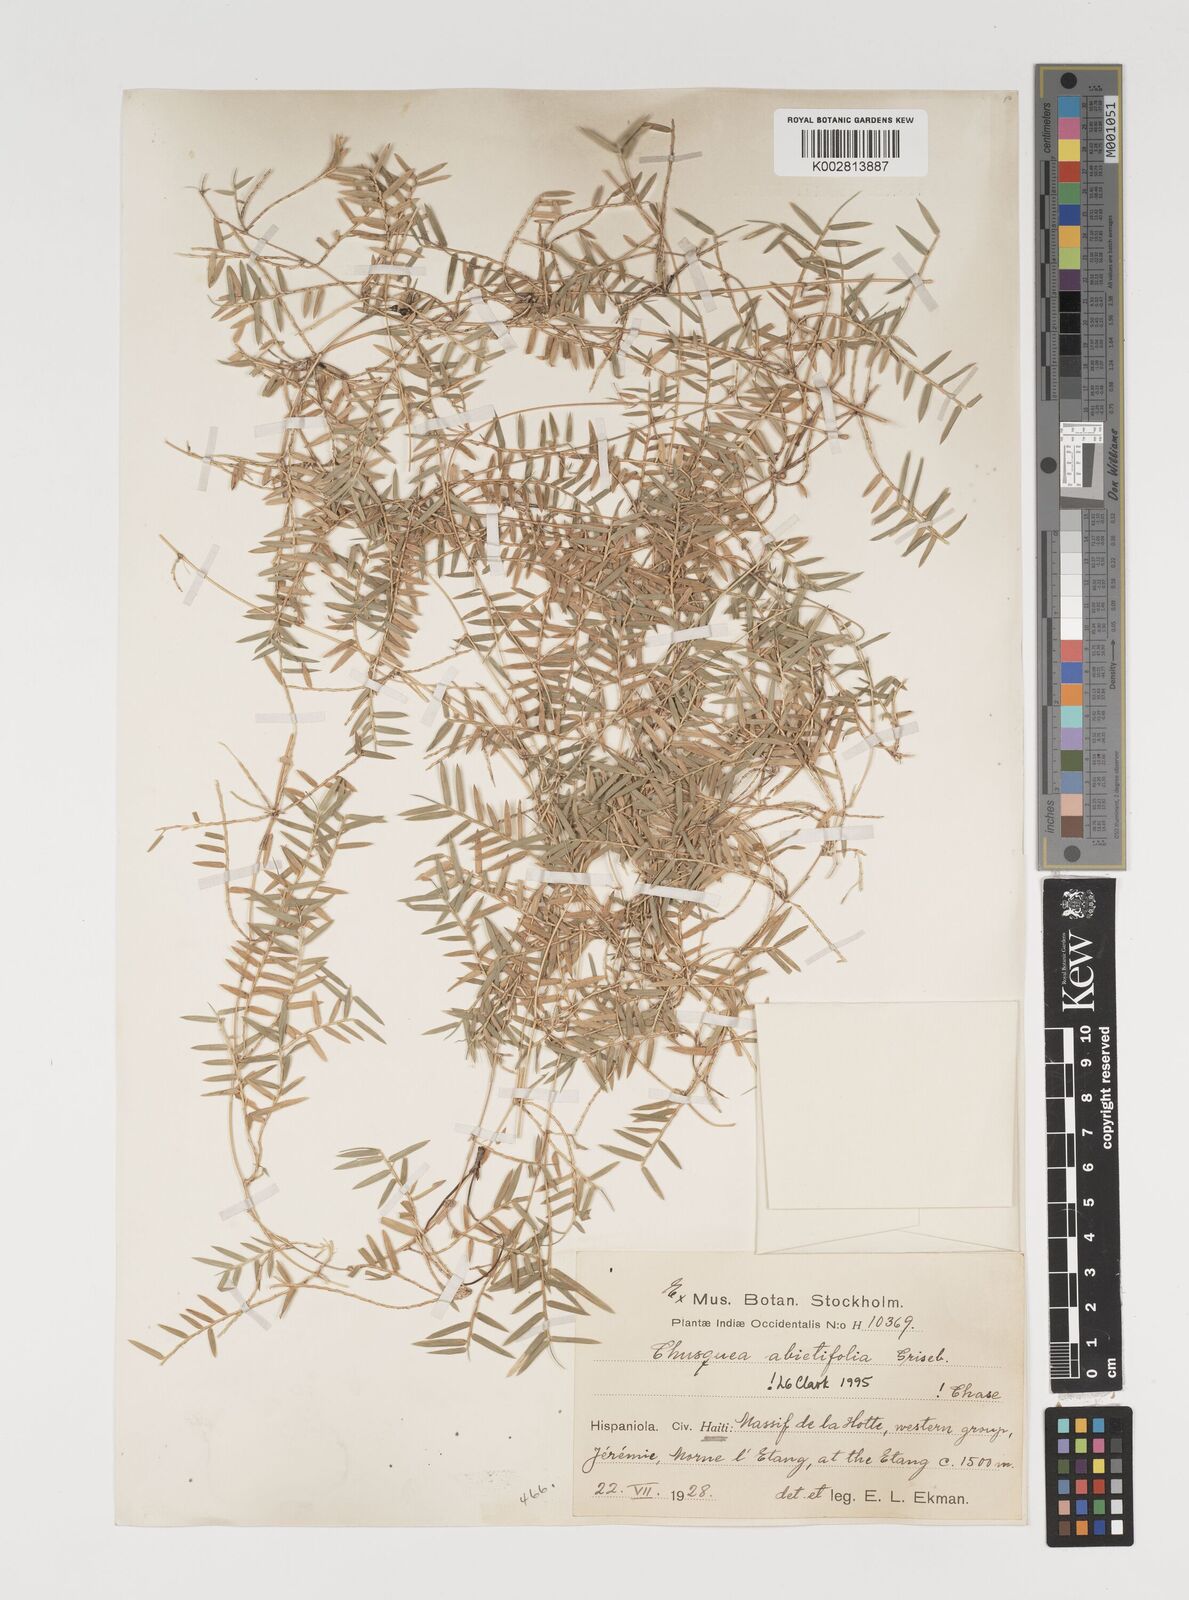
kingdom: Plantae
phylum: Tracheophyta
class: Liliopsida
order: Poales
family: Poaceae
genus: Chusquea
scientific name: Chusquea abietifolia
